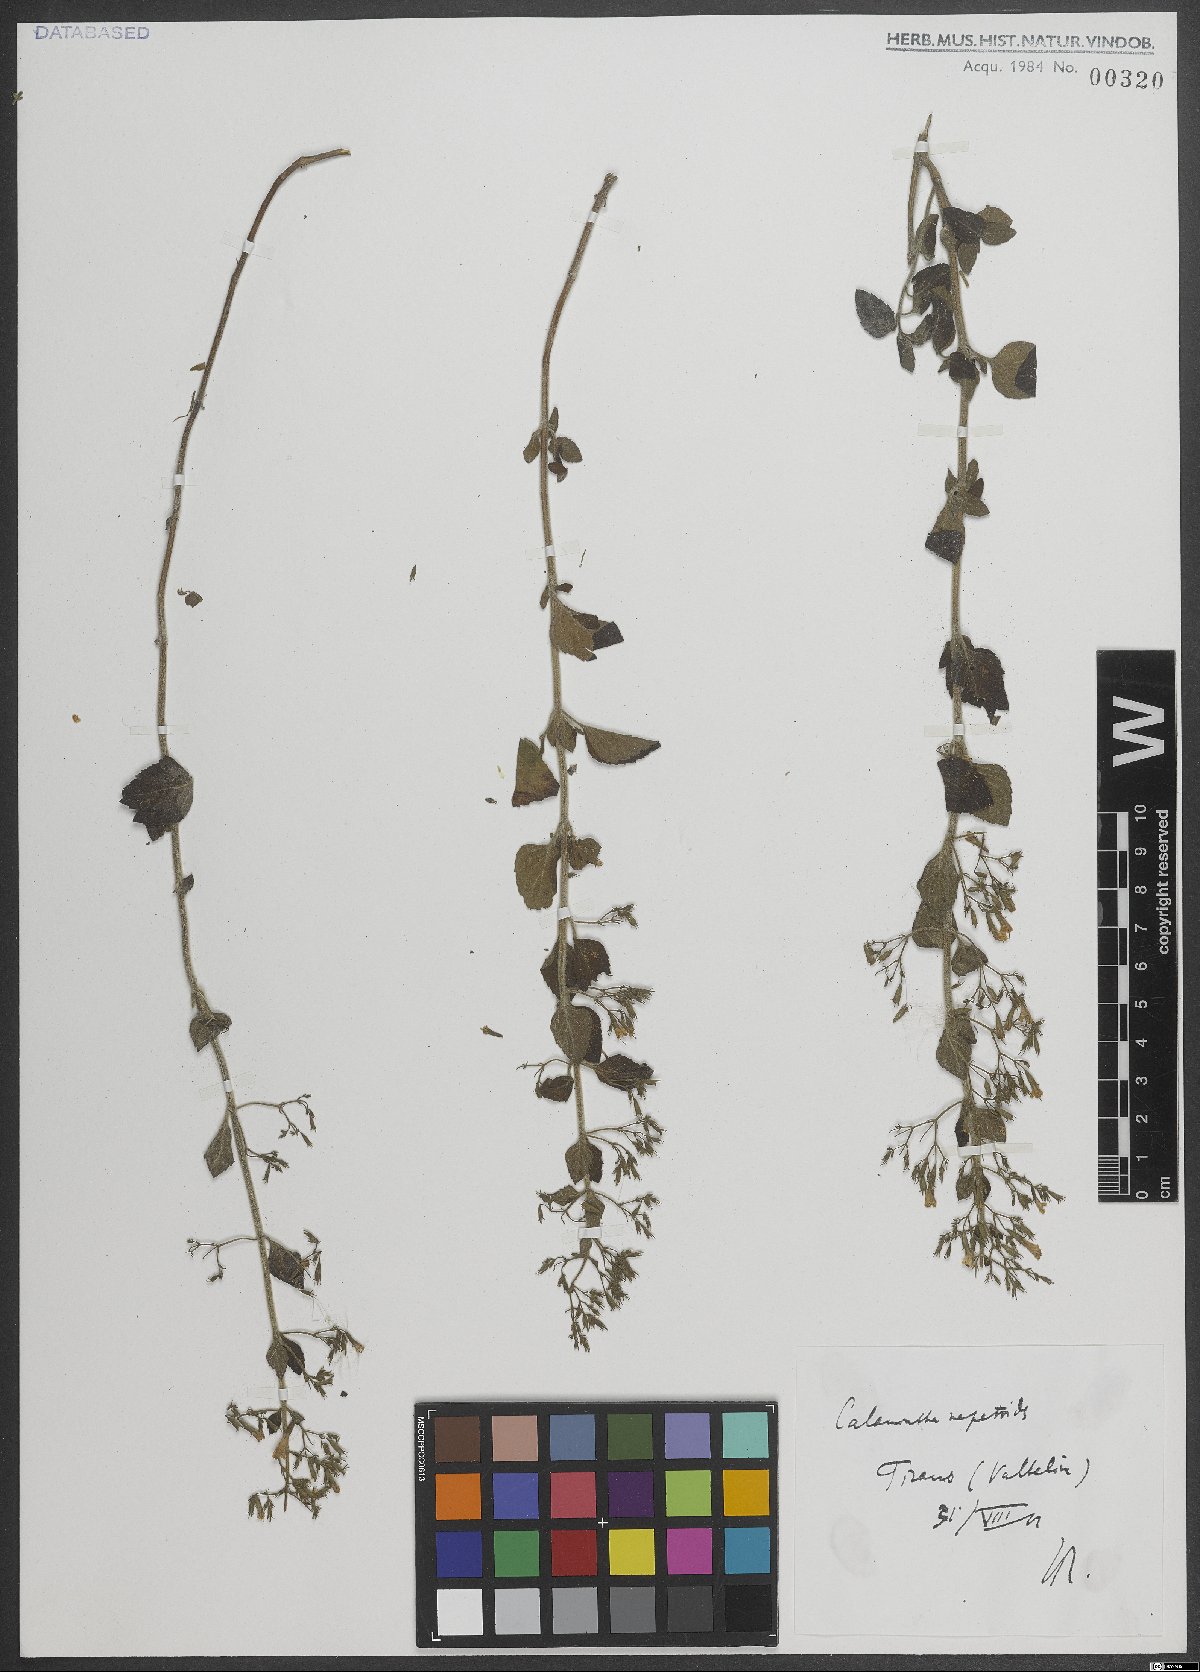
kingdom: Plantae
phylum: Tracheophyta
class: Magnoliopsida
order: Lamiales
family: Lamiaceae
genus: Clinopodium
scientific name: Clinopodium nepeta
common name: Lesser calamint
